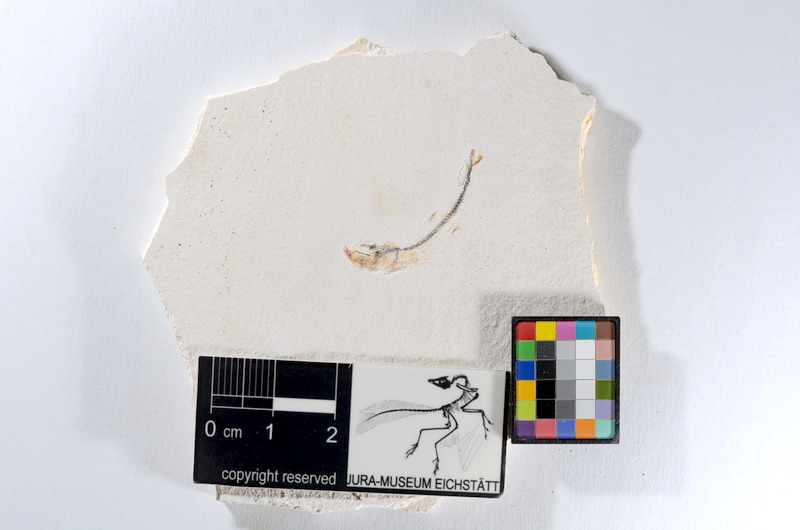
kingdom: Animalia
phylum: Chordata
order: Salmoniformes
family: Orthogonikleithridae
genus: Orthogonikleithrus
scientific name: Orthogonikleithrus hoelli
